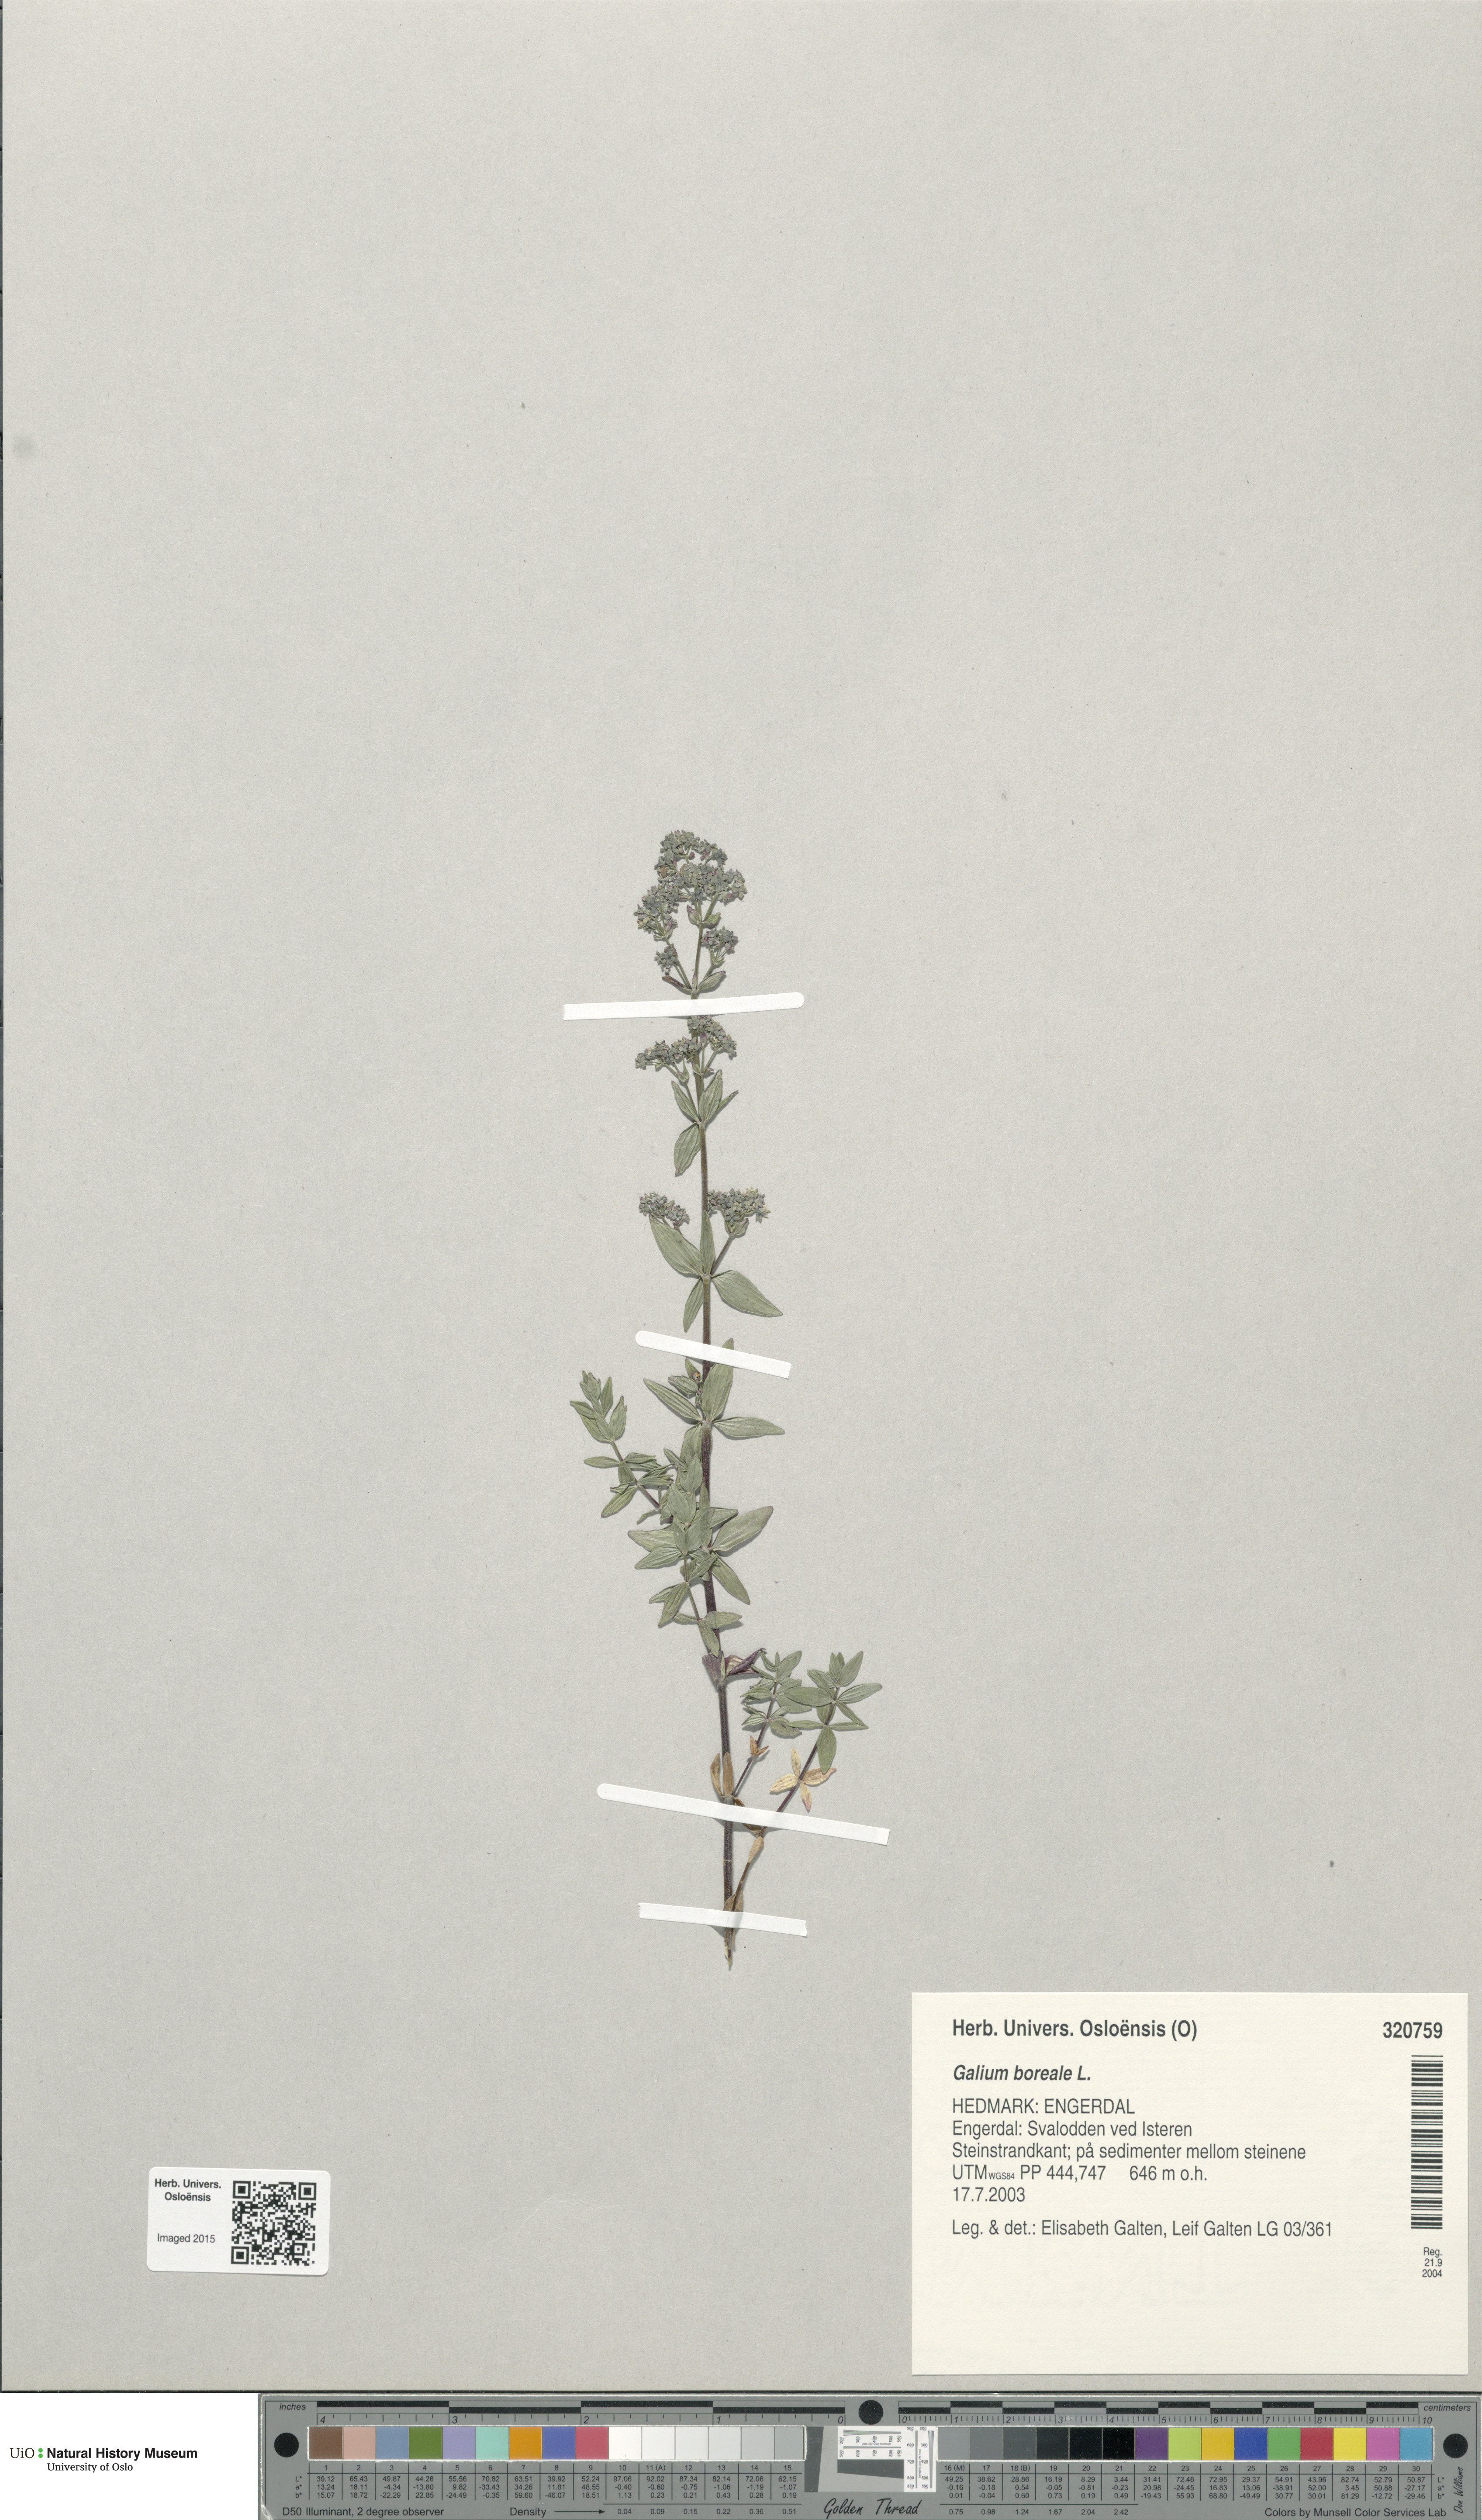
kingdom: Plantae
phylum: Tracheophyta
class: Magnoliopsida
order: Gentianales
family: Rubiaceae
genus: Galium
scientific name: Galium boreale
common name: Northern bedstraw
